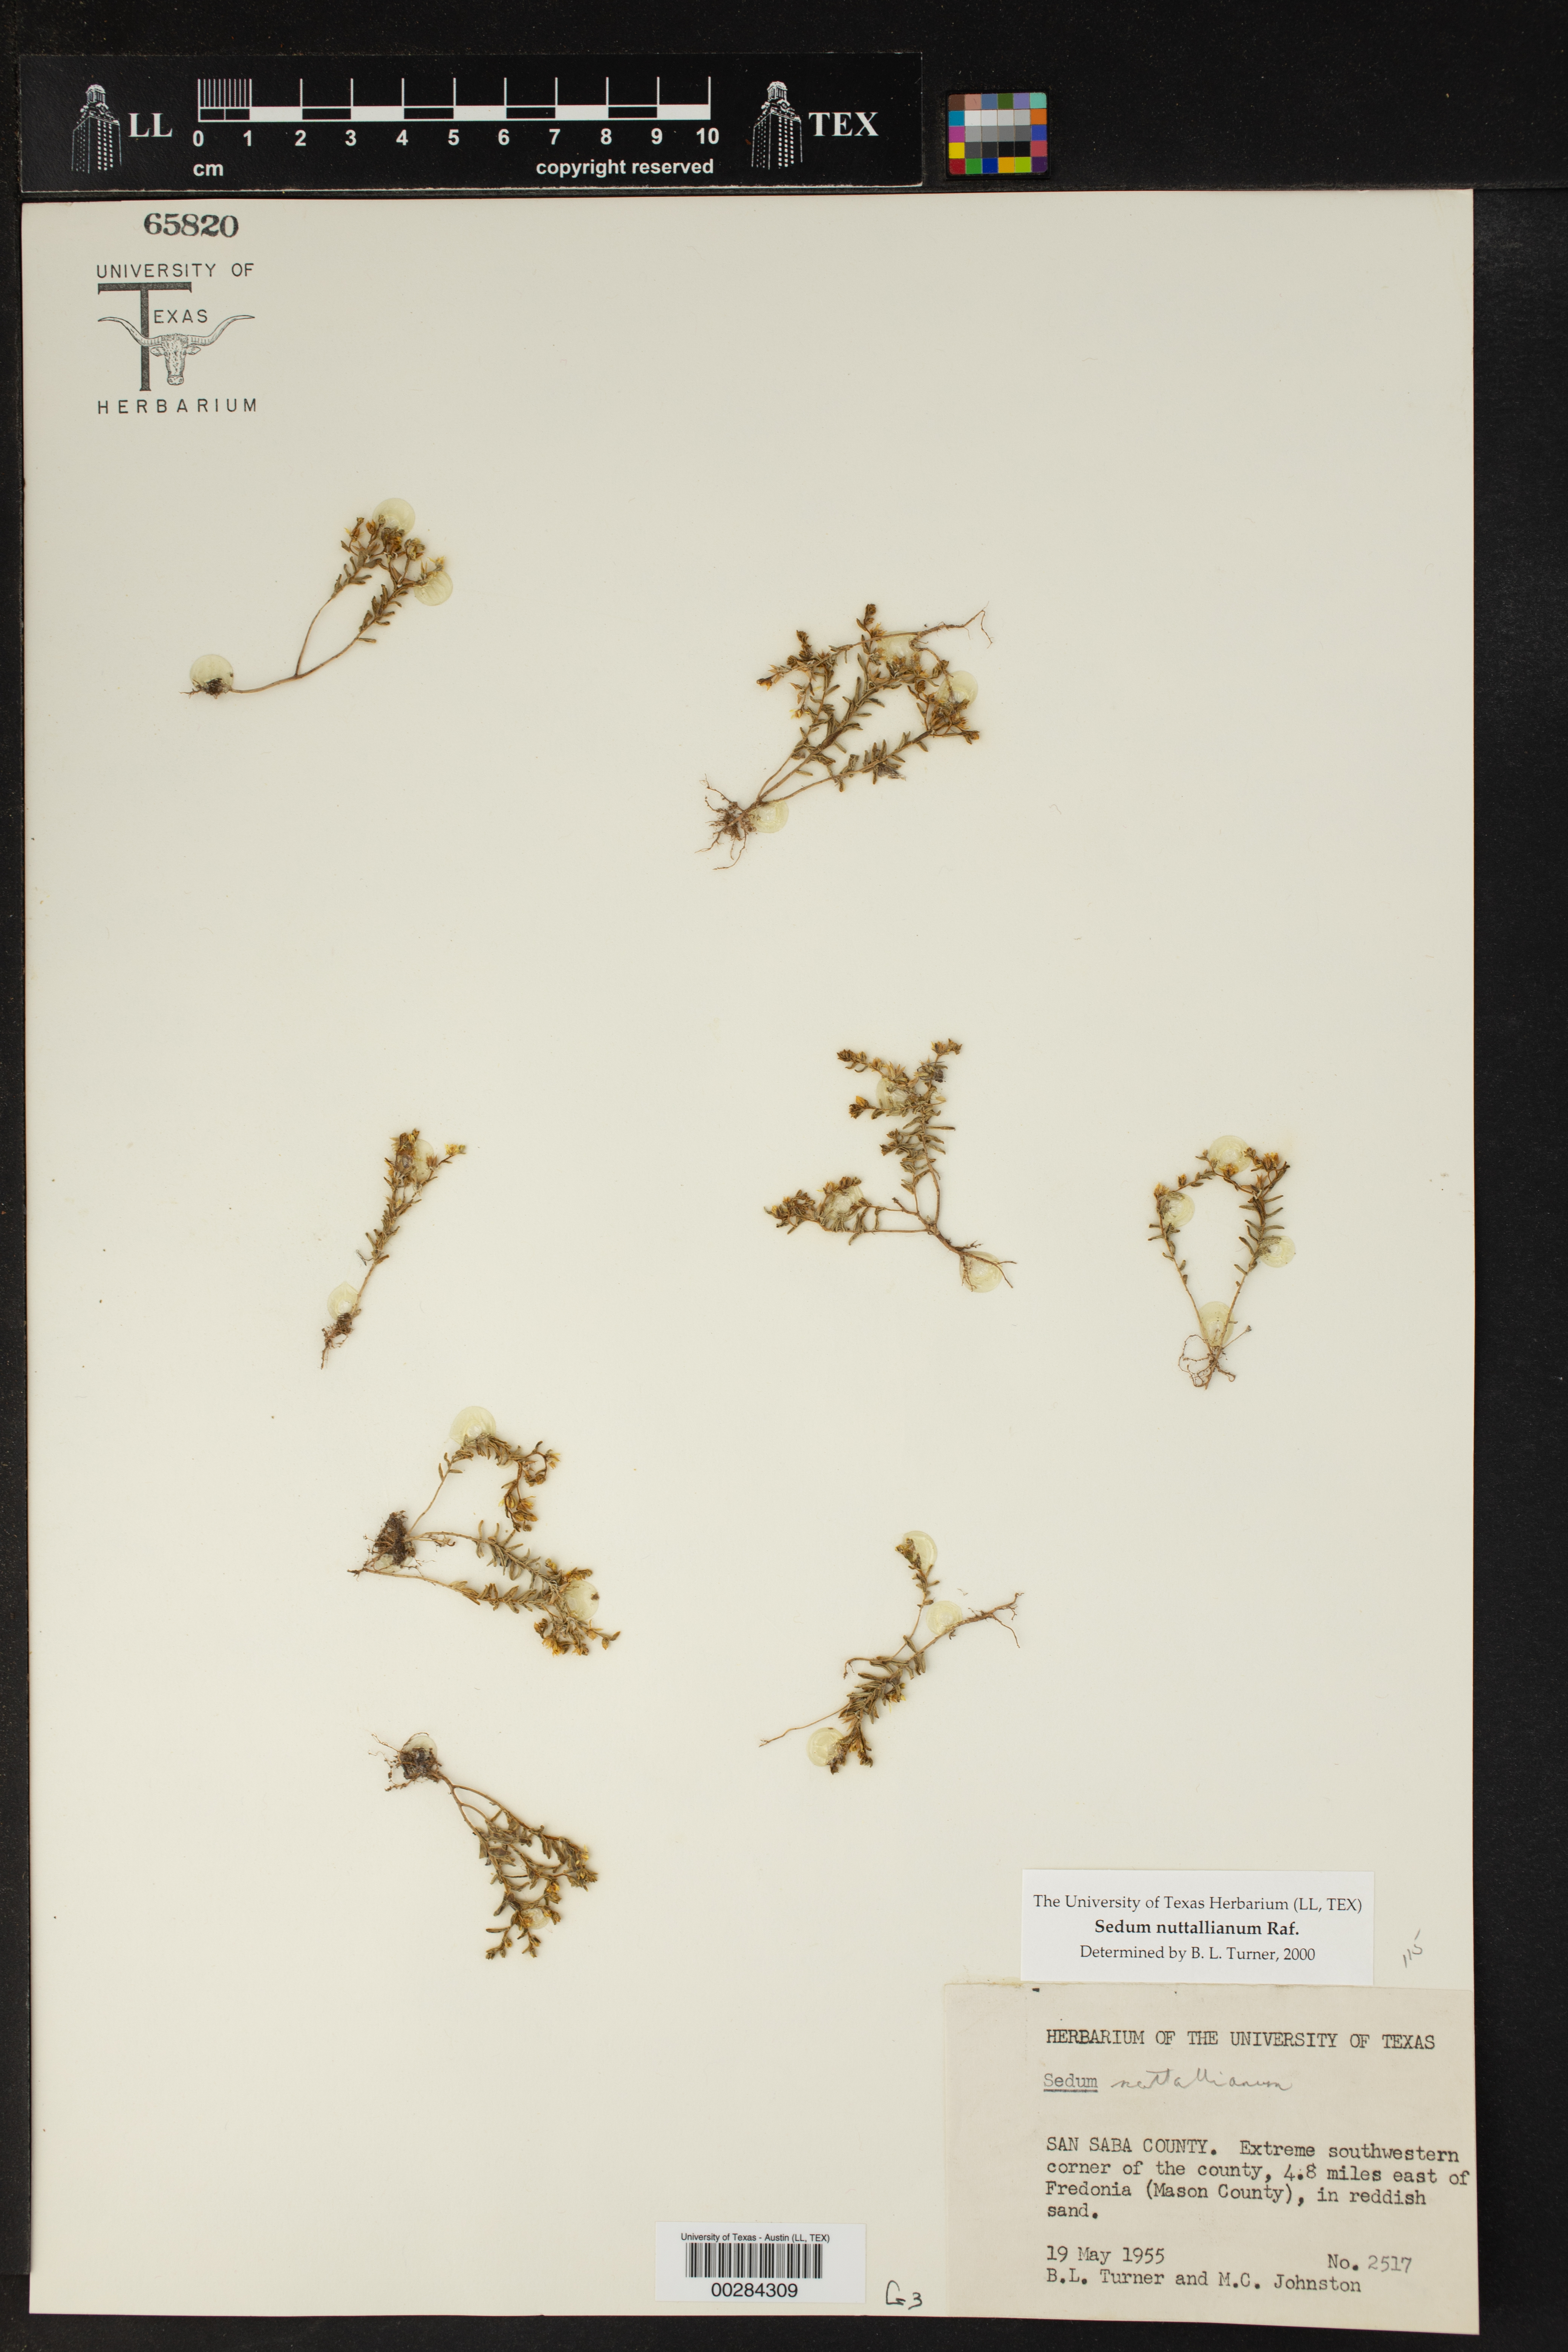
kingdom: Plantae
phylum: Tracheophyta
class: Magnoliopsida
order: Saxifragales
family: Crassulaceae
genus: Sedum
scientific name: Sedum nuttallii
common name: Yellow stonecrop
